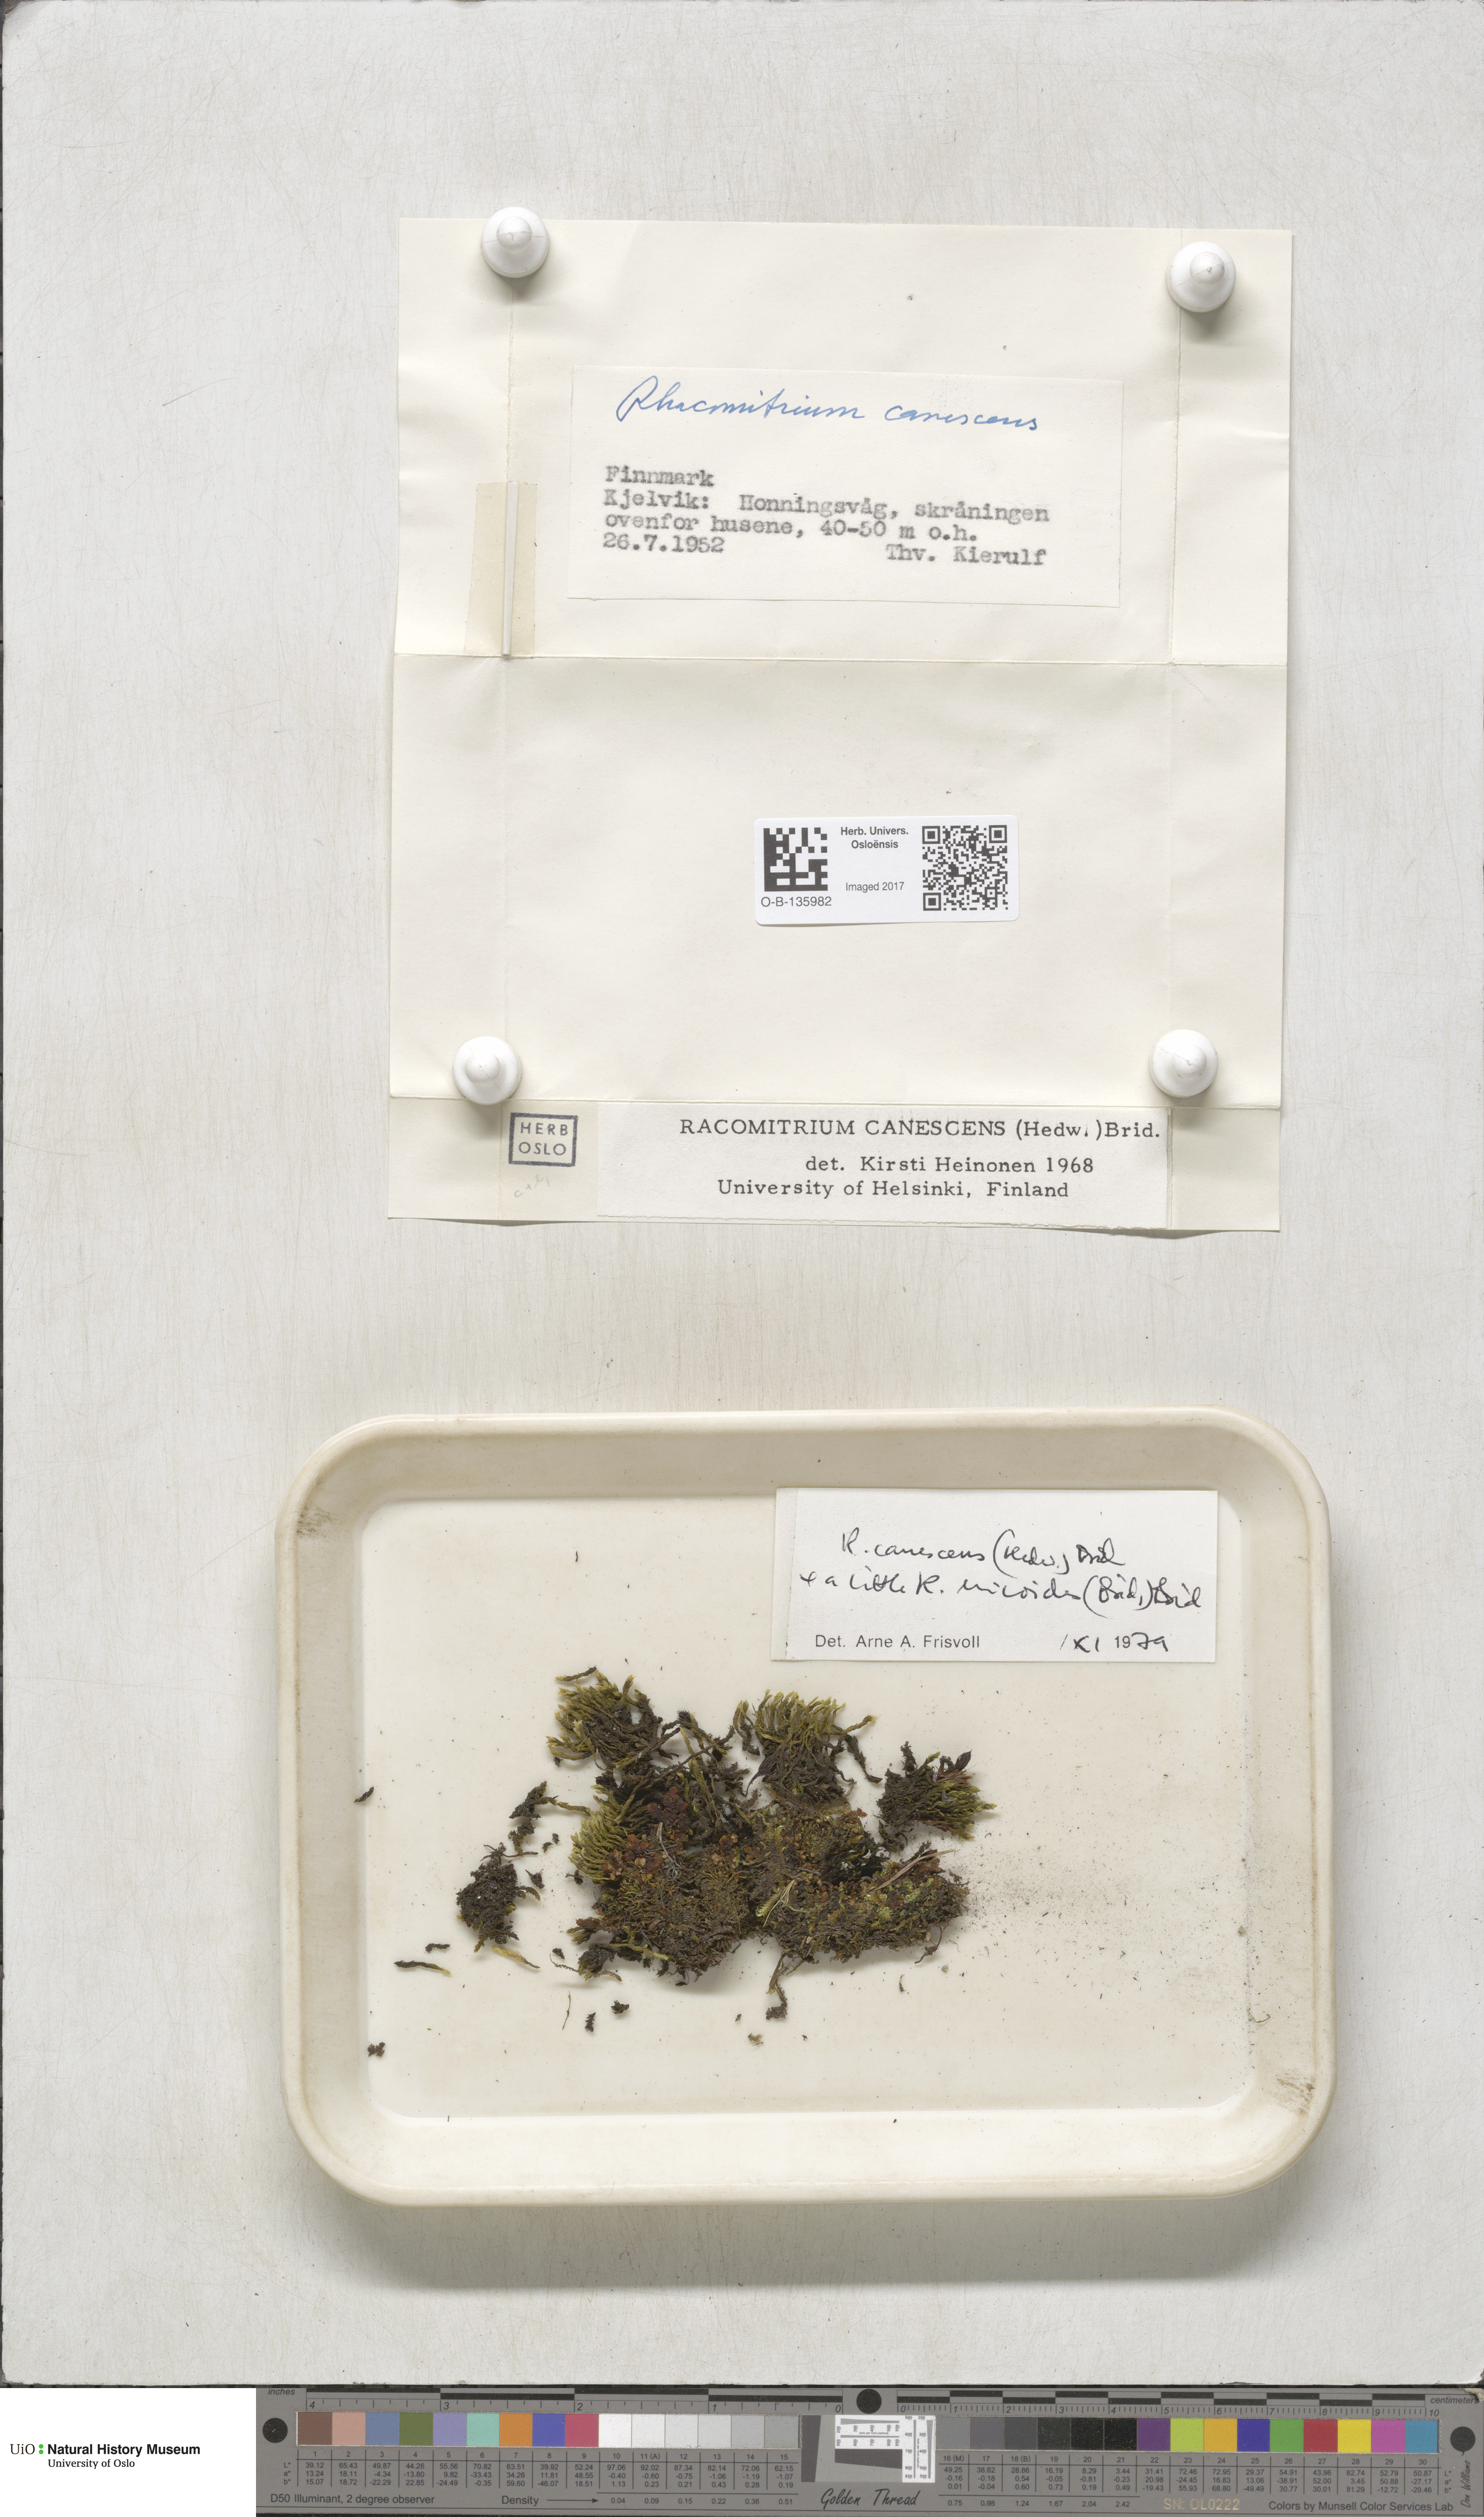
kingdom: Plantae
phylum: Bryophyta
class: Bryopsida
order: Grimmiales
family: Grimmiaceae
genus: Niphotrichum
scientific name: Niphotrichum canescens
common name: Hoary fringe-moss
